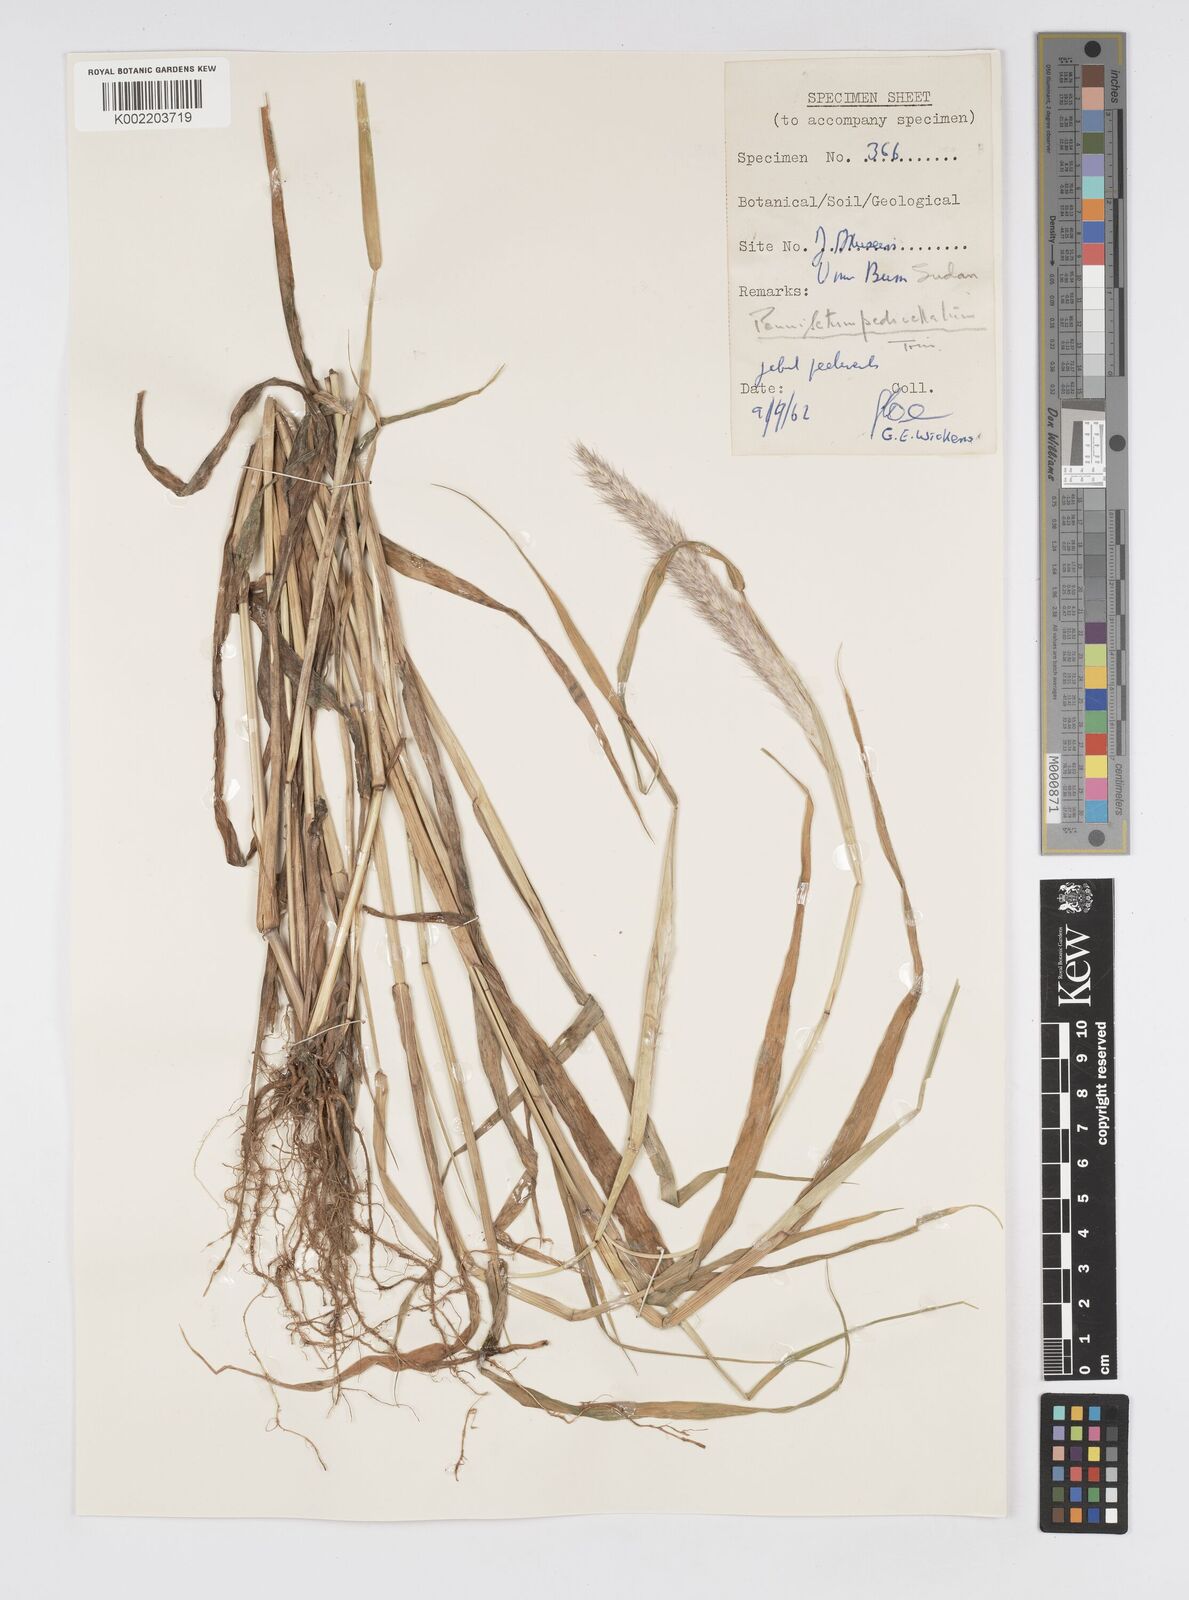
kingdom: Plantae
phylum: Tracheophyta
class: Liliopsida
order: Poales
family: Poaceae
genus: Cenchrus
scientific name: Cenchrus pedicellatus
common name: Hairy fountain grass
